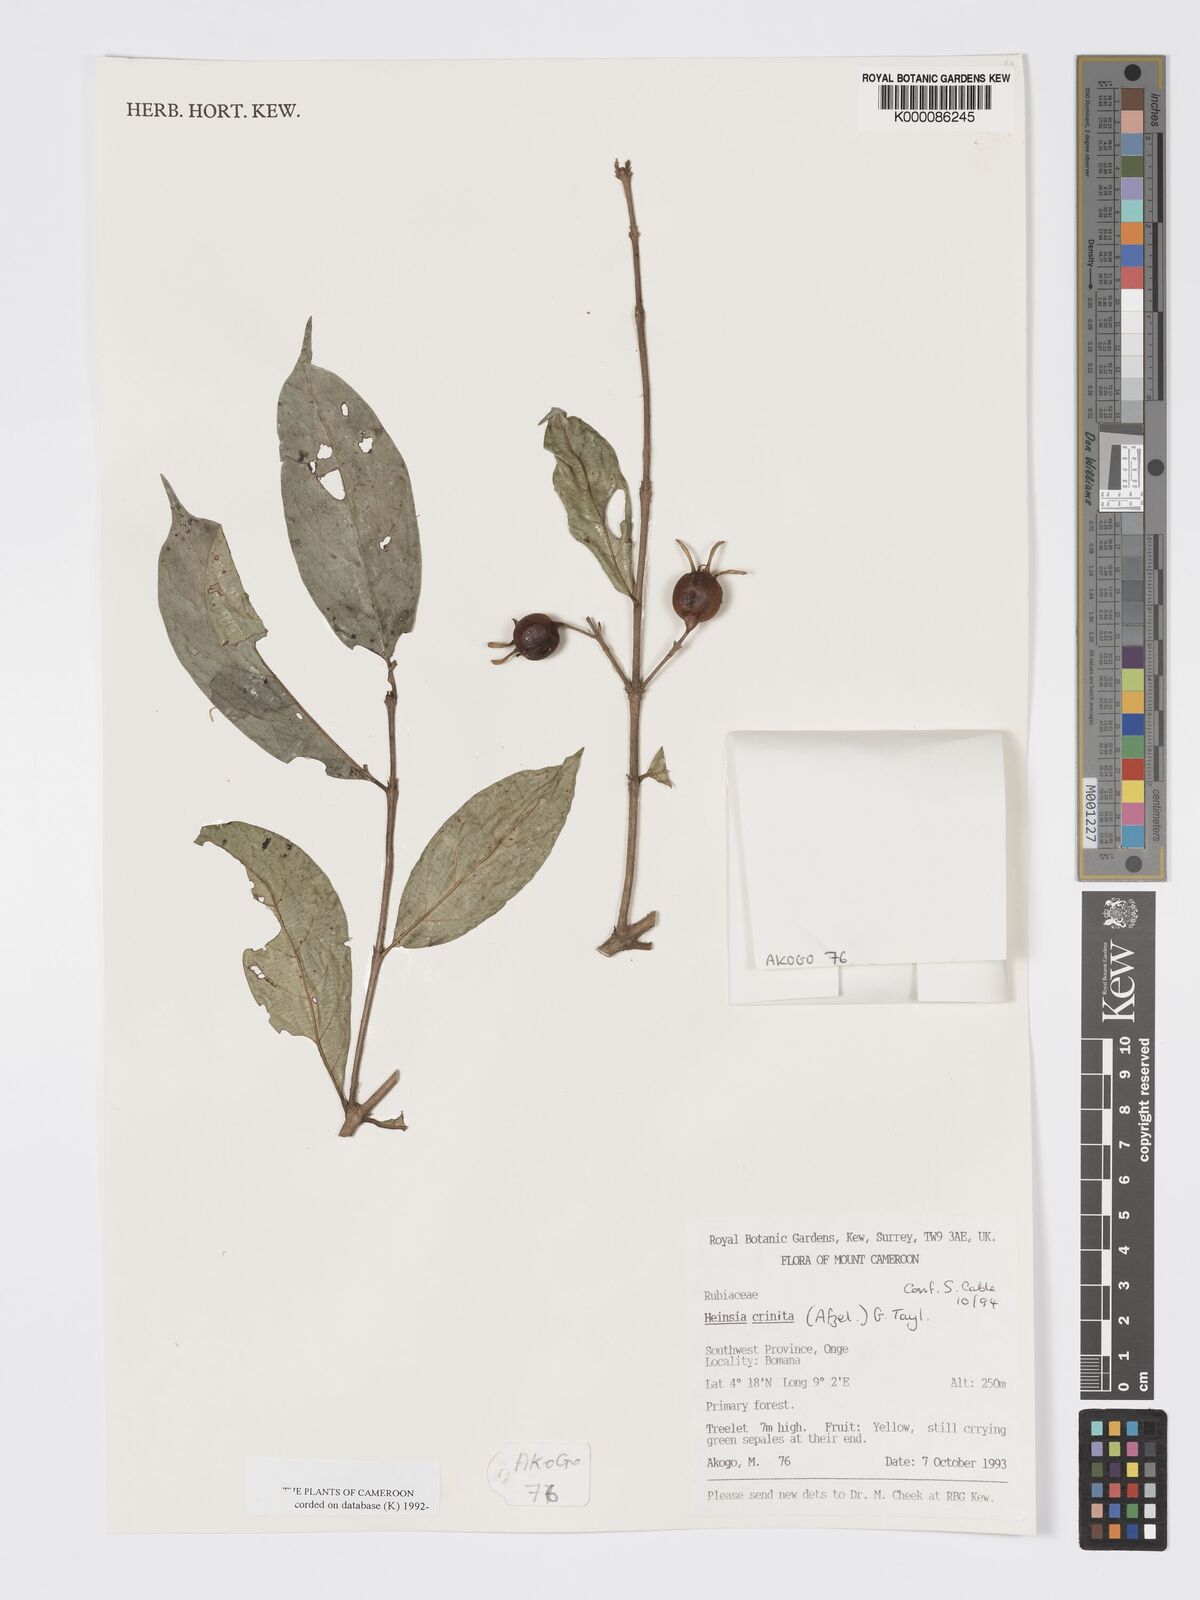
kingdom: Plantae
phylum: Tracheophyta
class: Magnoliopsida
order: Gentianales
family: Rubiaceae
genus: Heinsia
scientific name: Heinsia crinita
